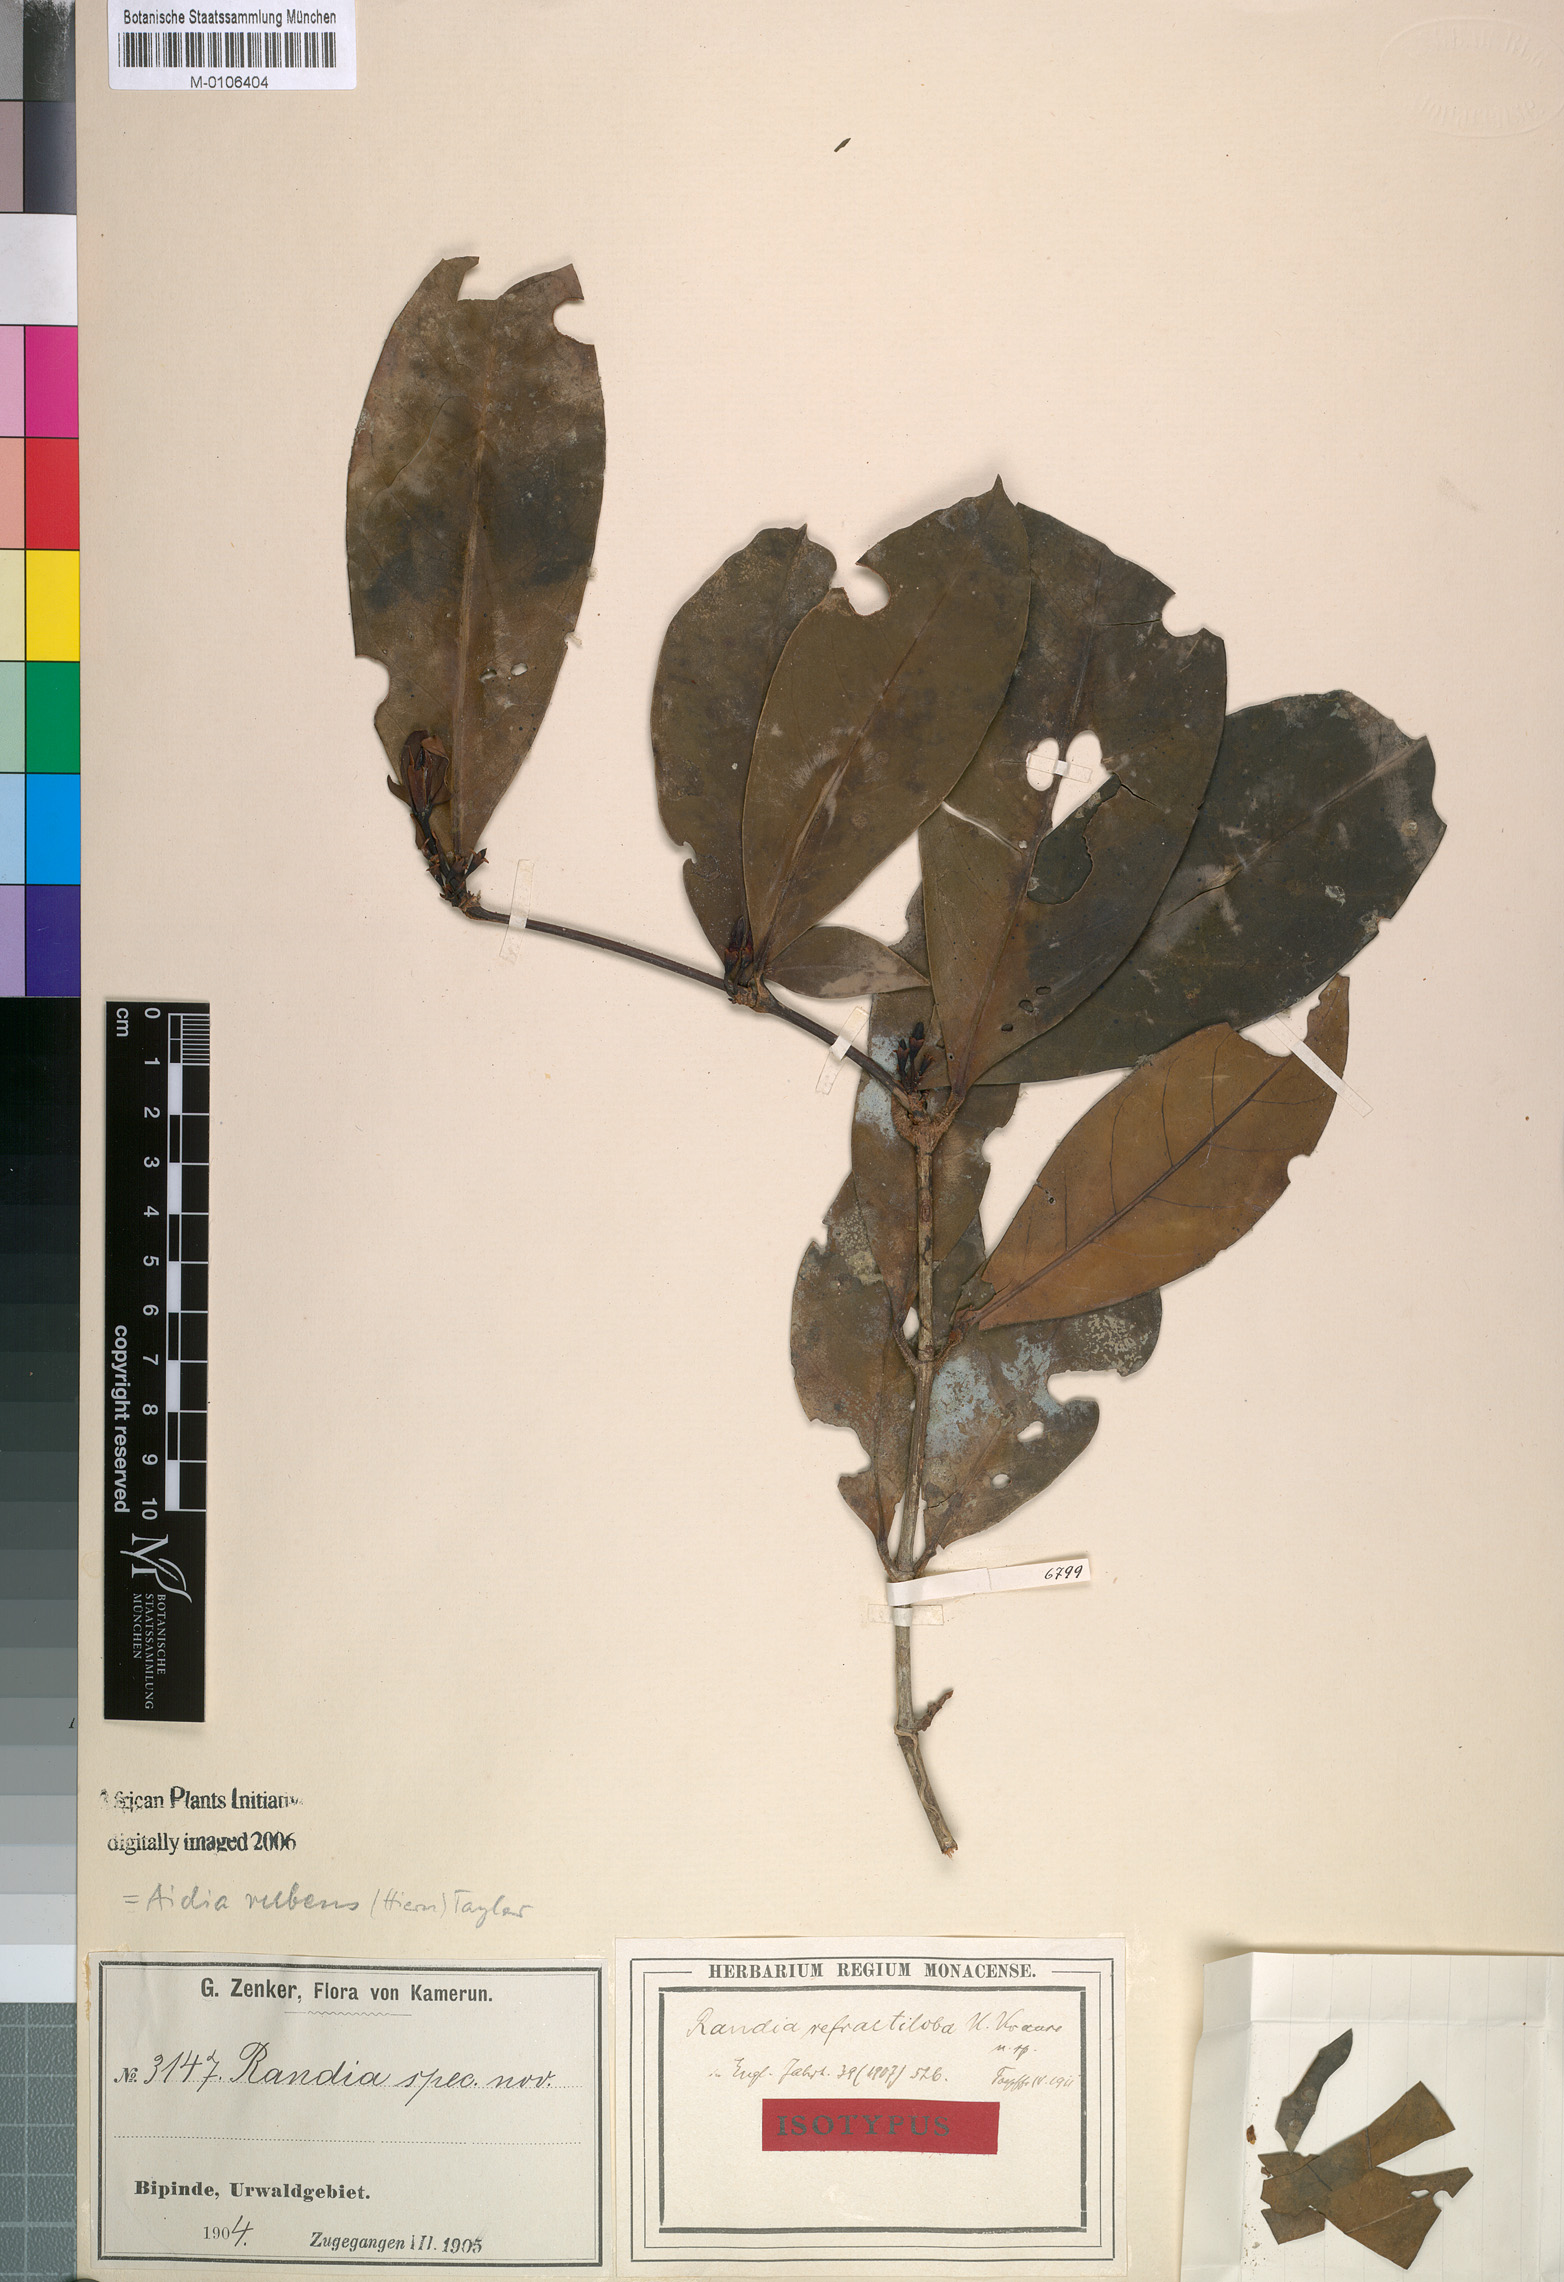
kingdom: Plantae
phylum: Tracheophyta
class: Magnoliopsida
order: Gentianales
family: Rubiaceae
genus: Aidia
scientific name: Aidia rubens
